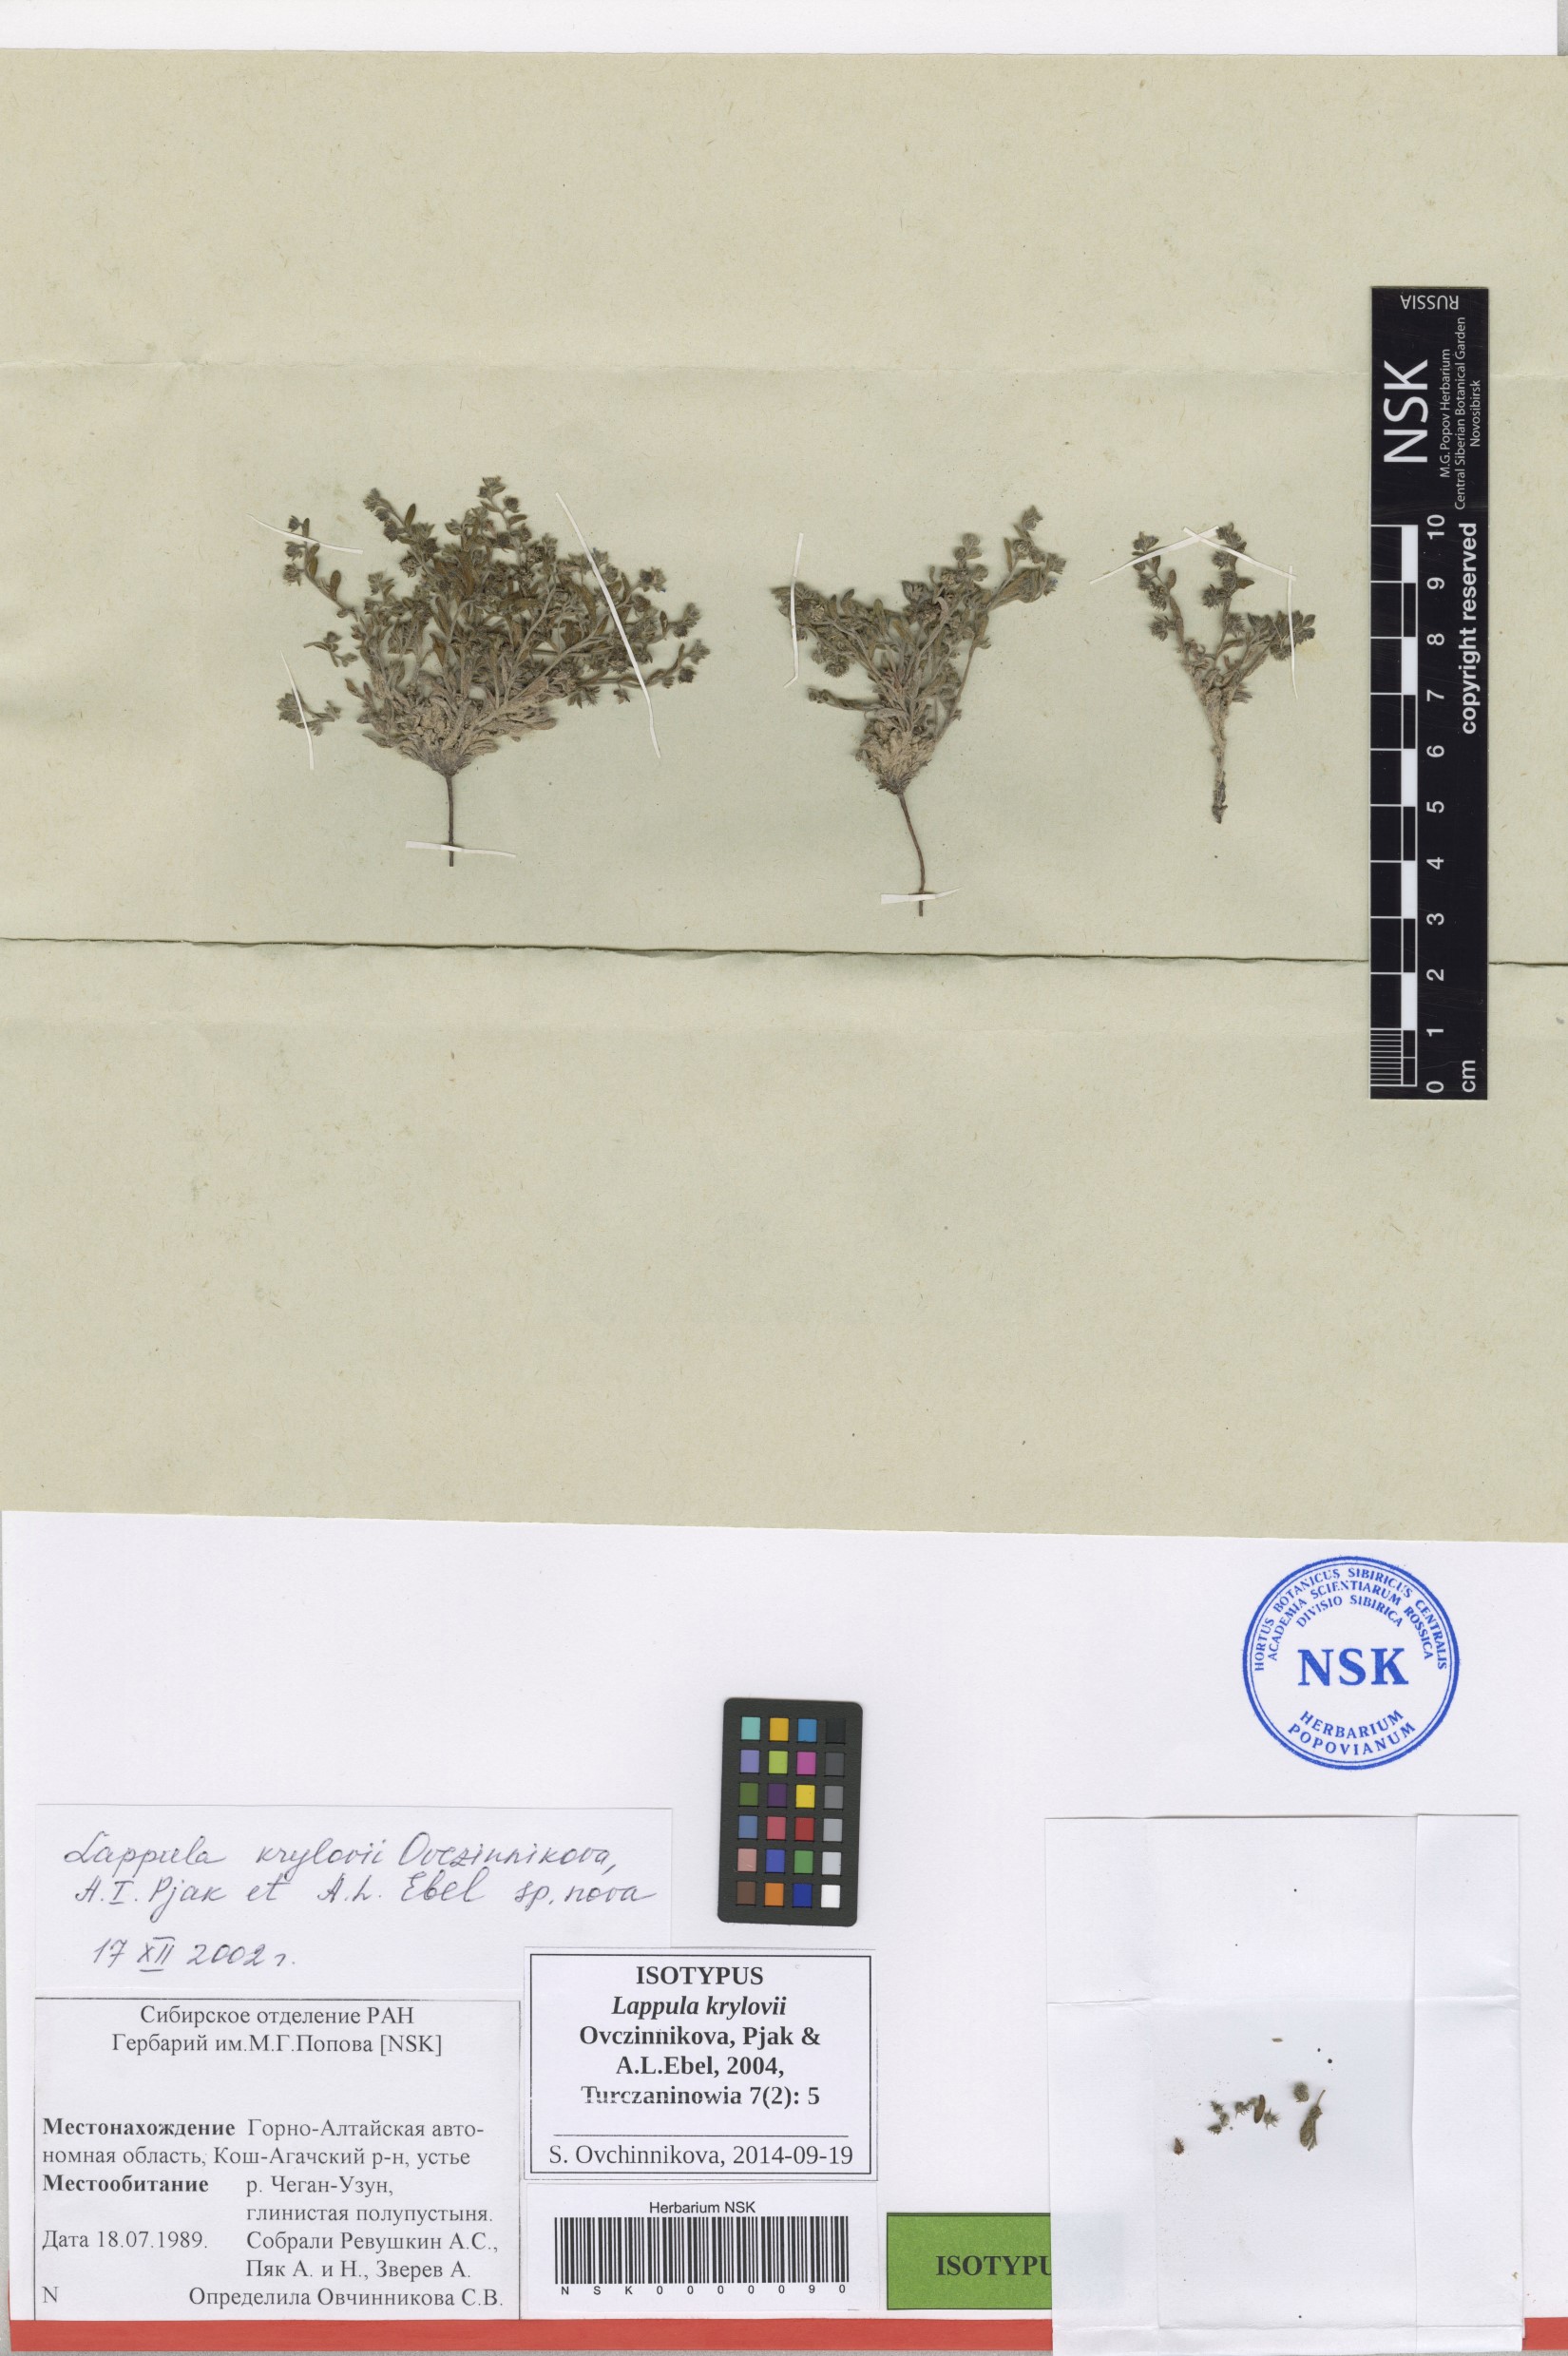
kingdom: Plantae
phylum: Tracheophyta
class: Magnoliopsida
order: Boraginales
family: Boraginaceae
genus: Lappula
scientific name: Lappula krylovii
